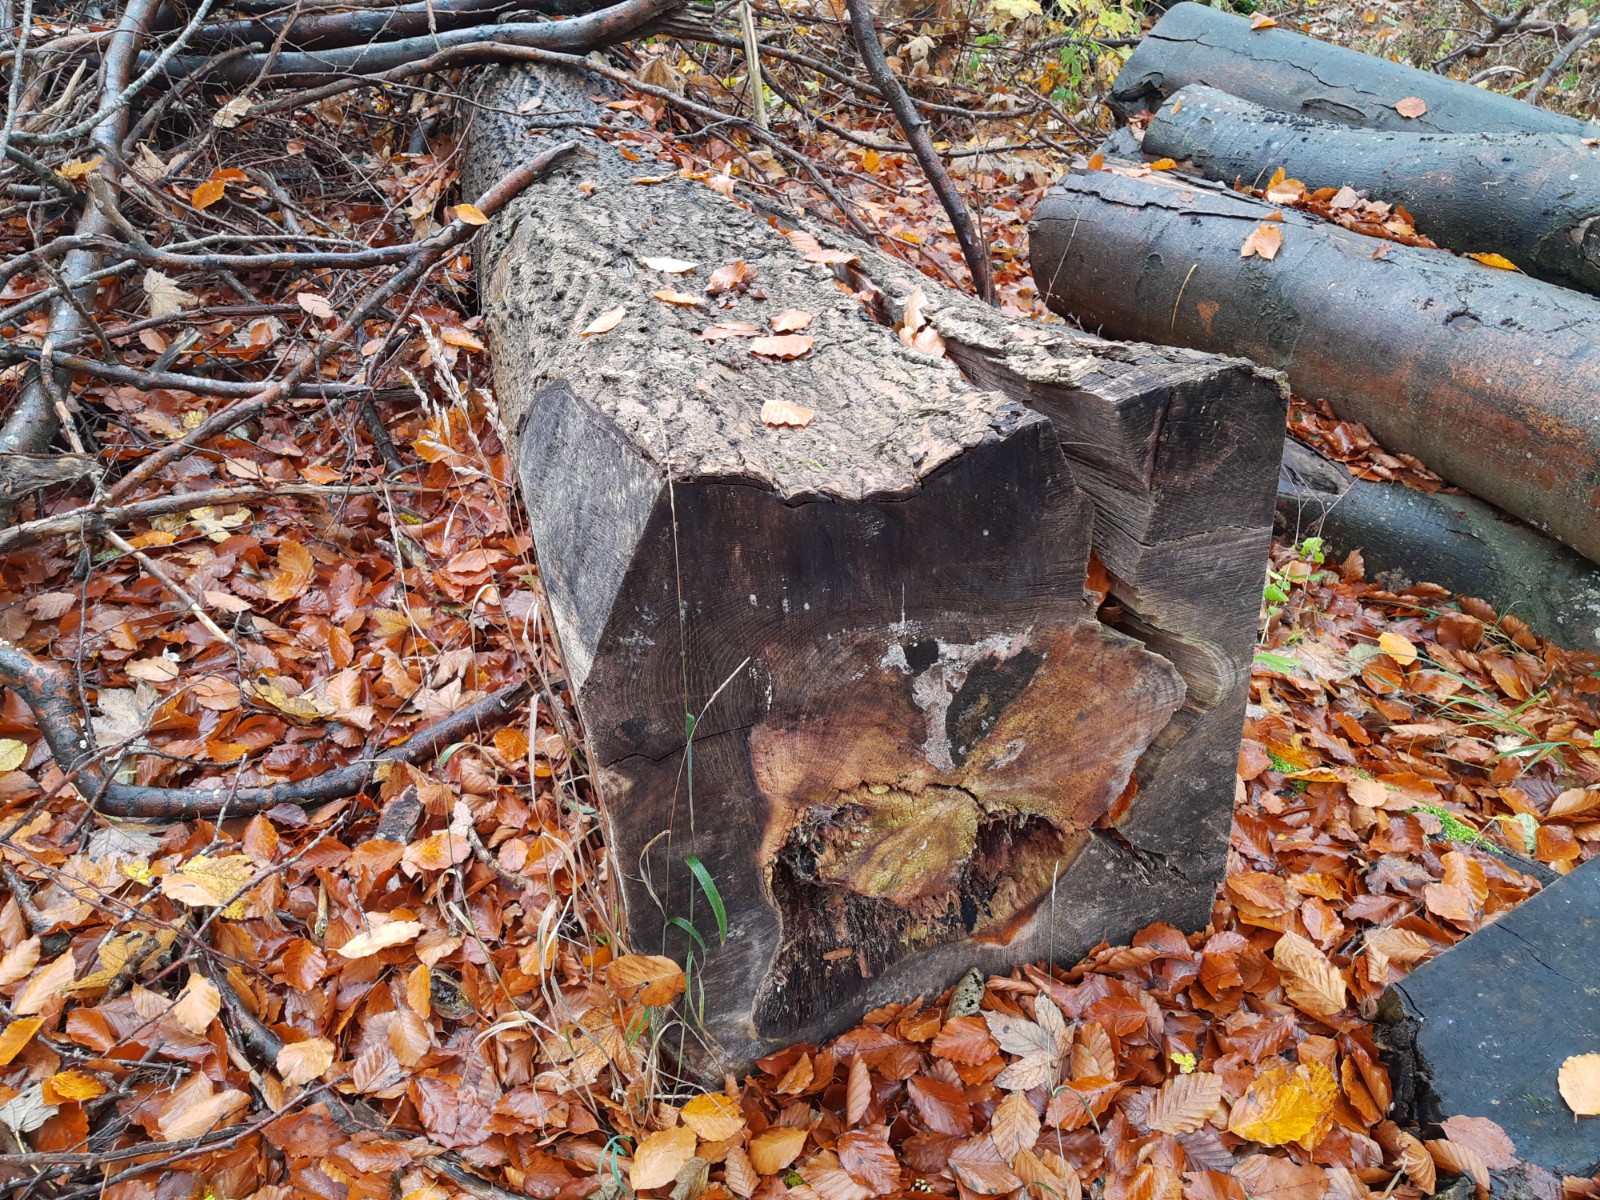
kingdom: Fungi
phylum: Ascomycota
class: Sordariomycetes
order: Hypocreales
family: Nectriaceae
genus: Hydropisphaera
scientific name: Hydropisphaera peziza
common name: skålformet gyldenkerne
